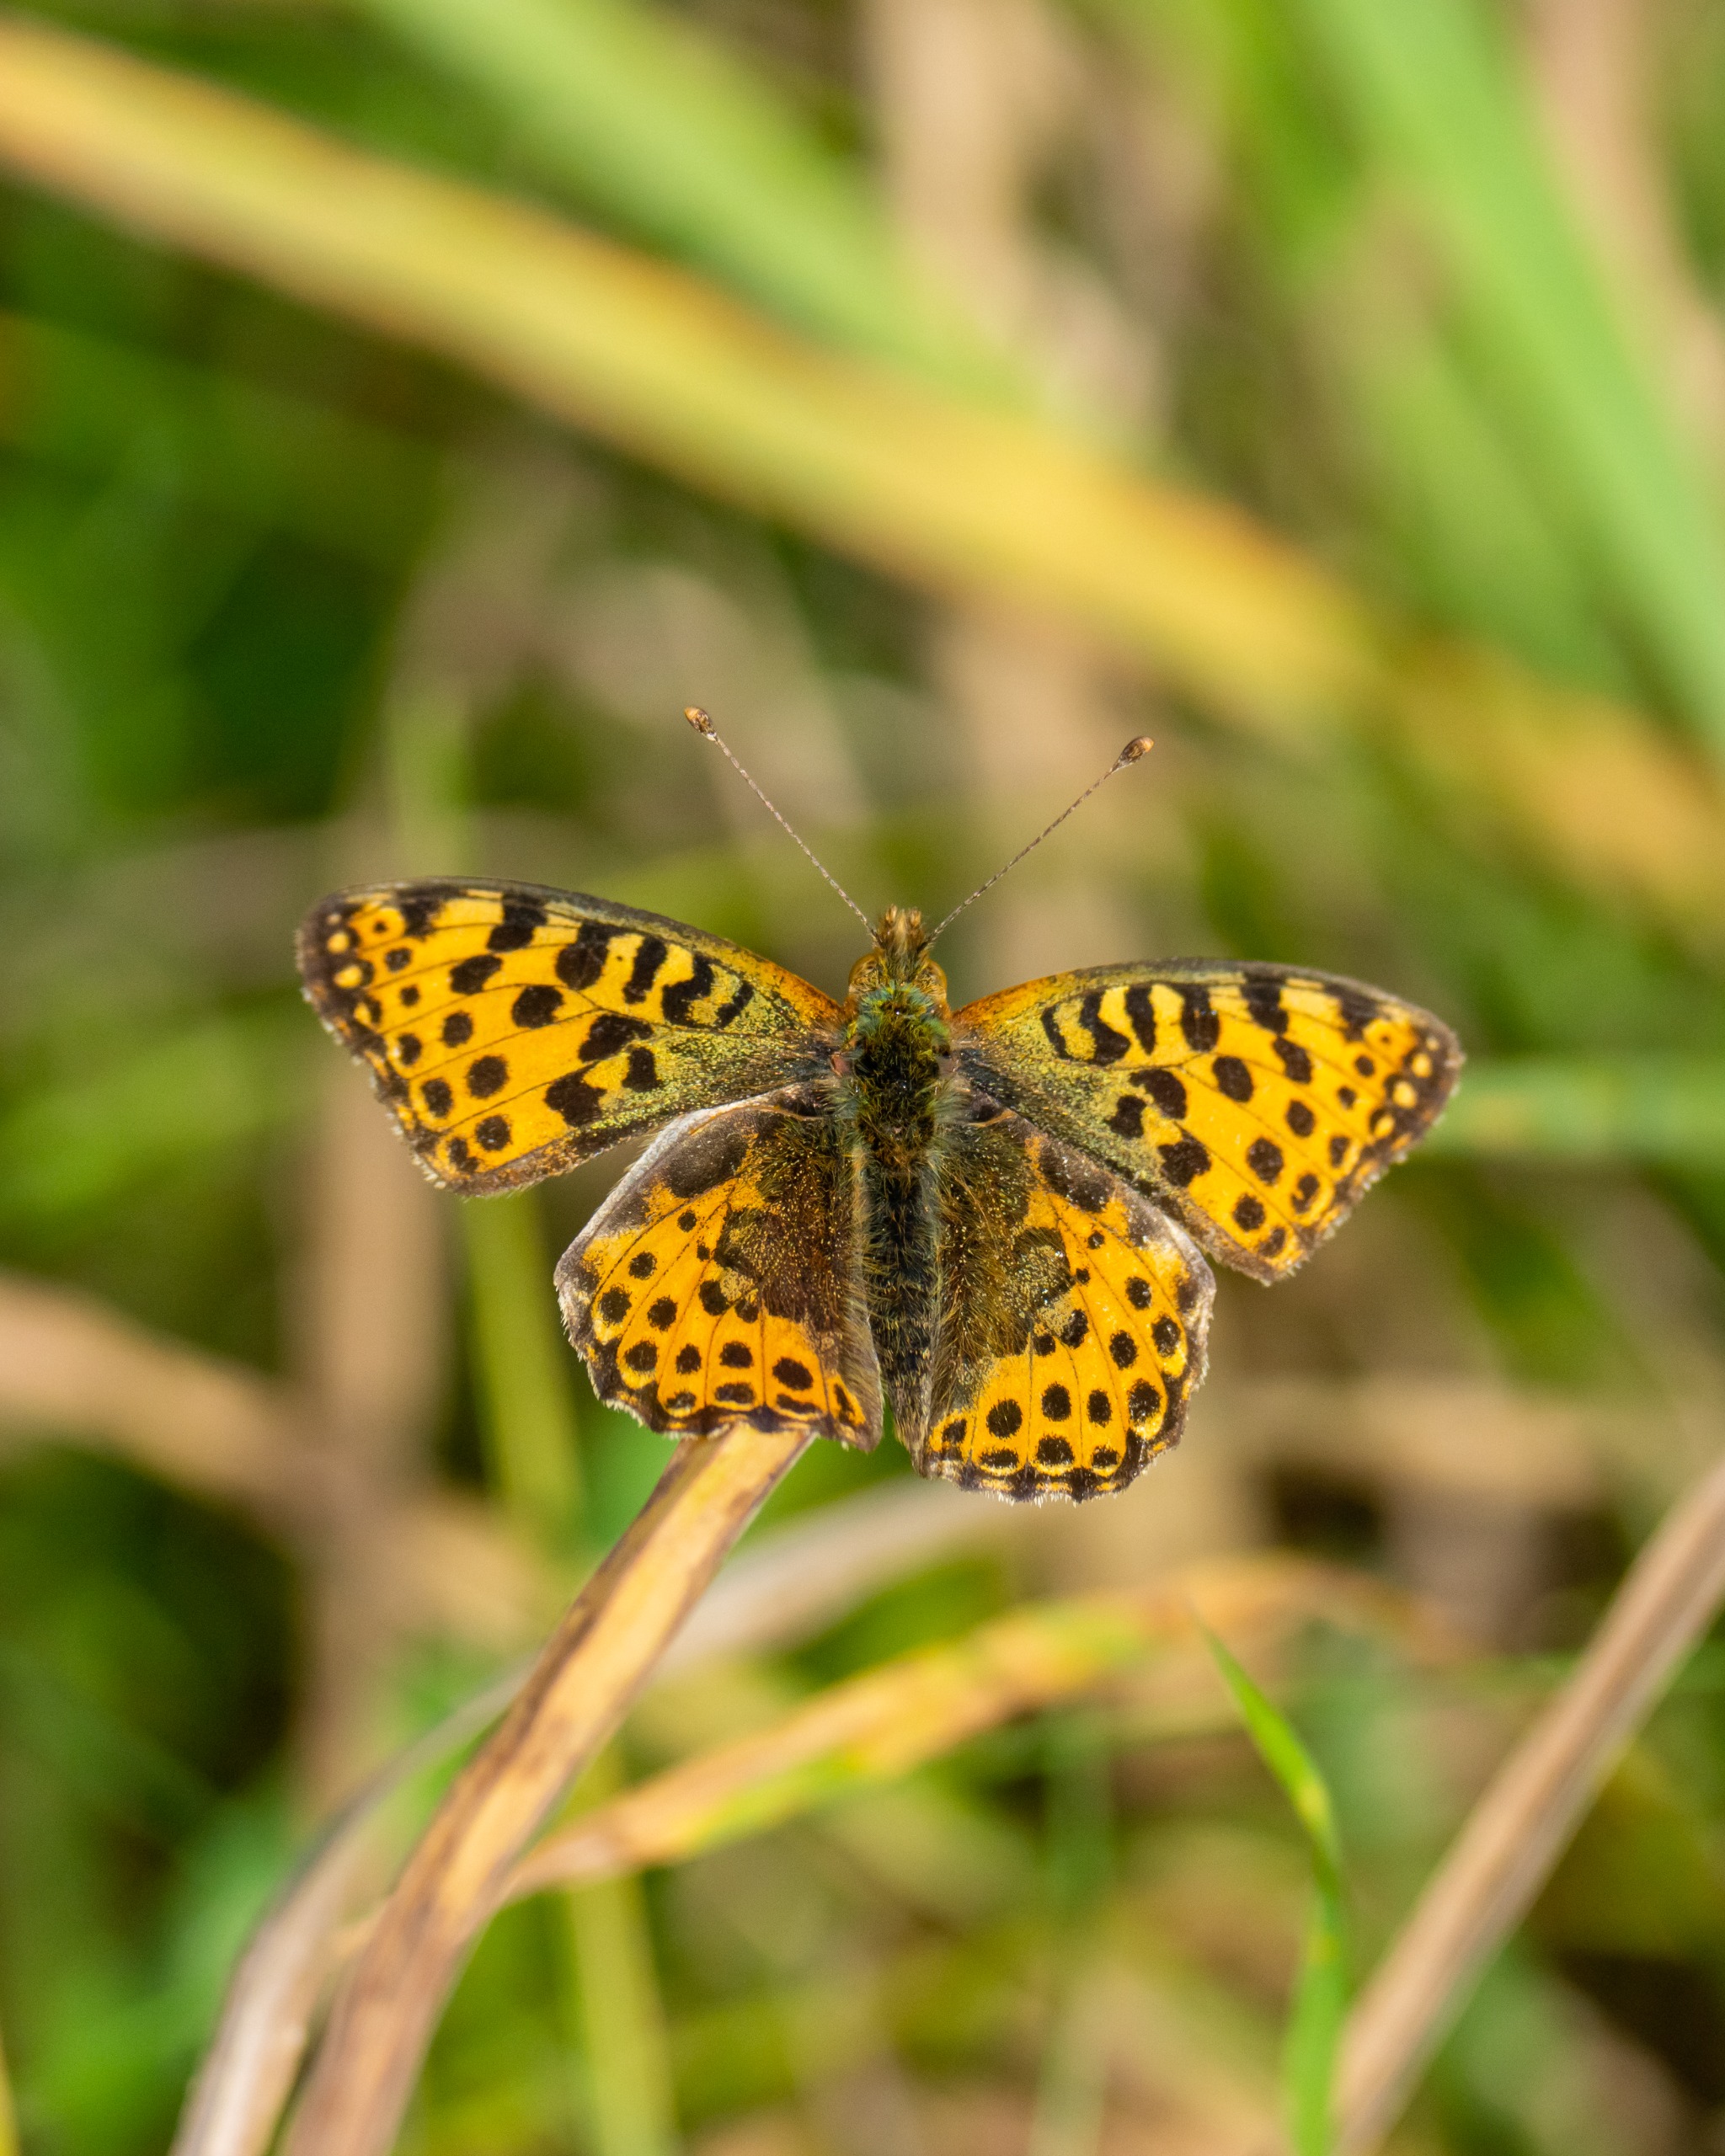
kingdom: Animalia
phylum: Arthropoda
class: Insecta
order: Lepidoptera
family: Nymphalidae
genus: Issoria
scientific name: Issoria lathonia
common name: Storplettet perlemorsommerfugl
